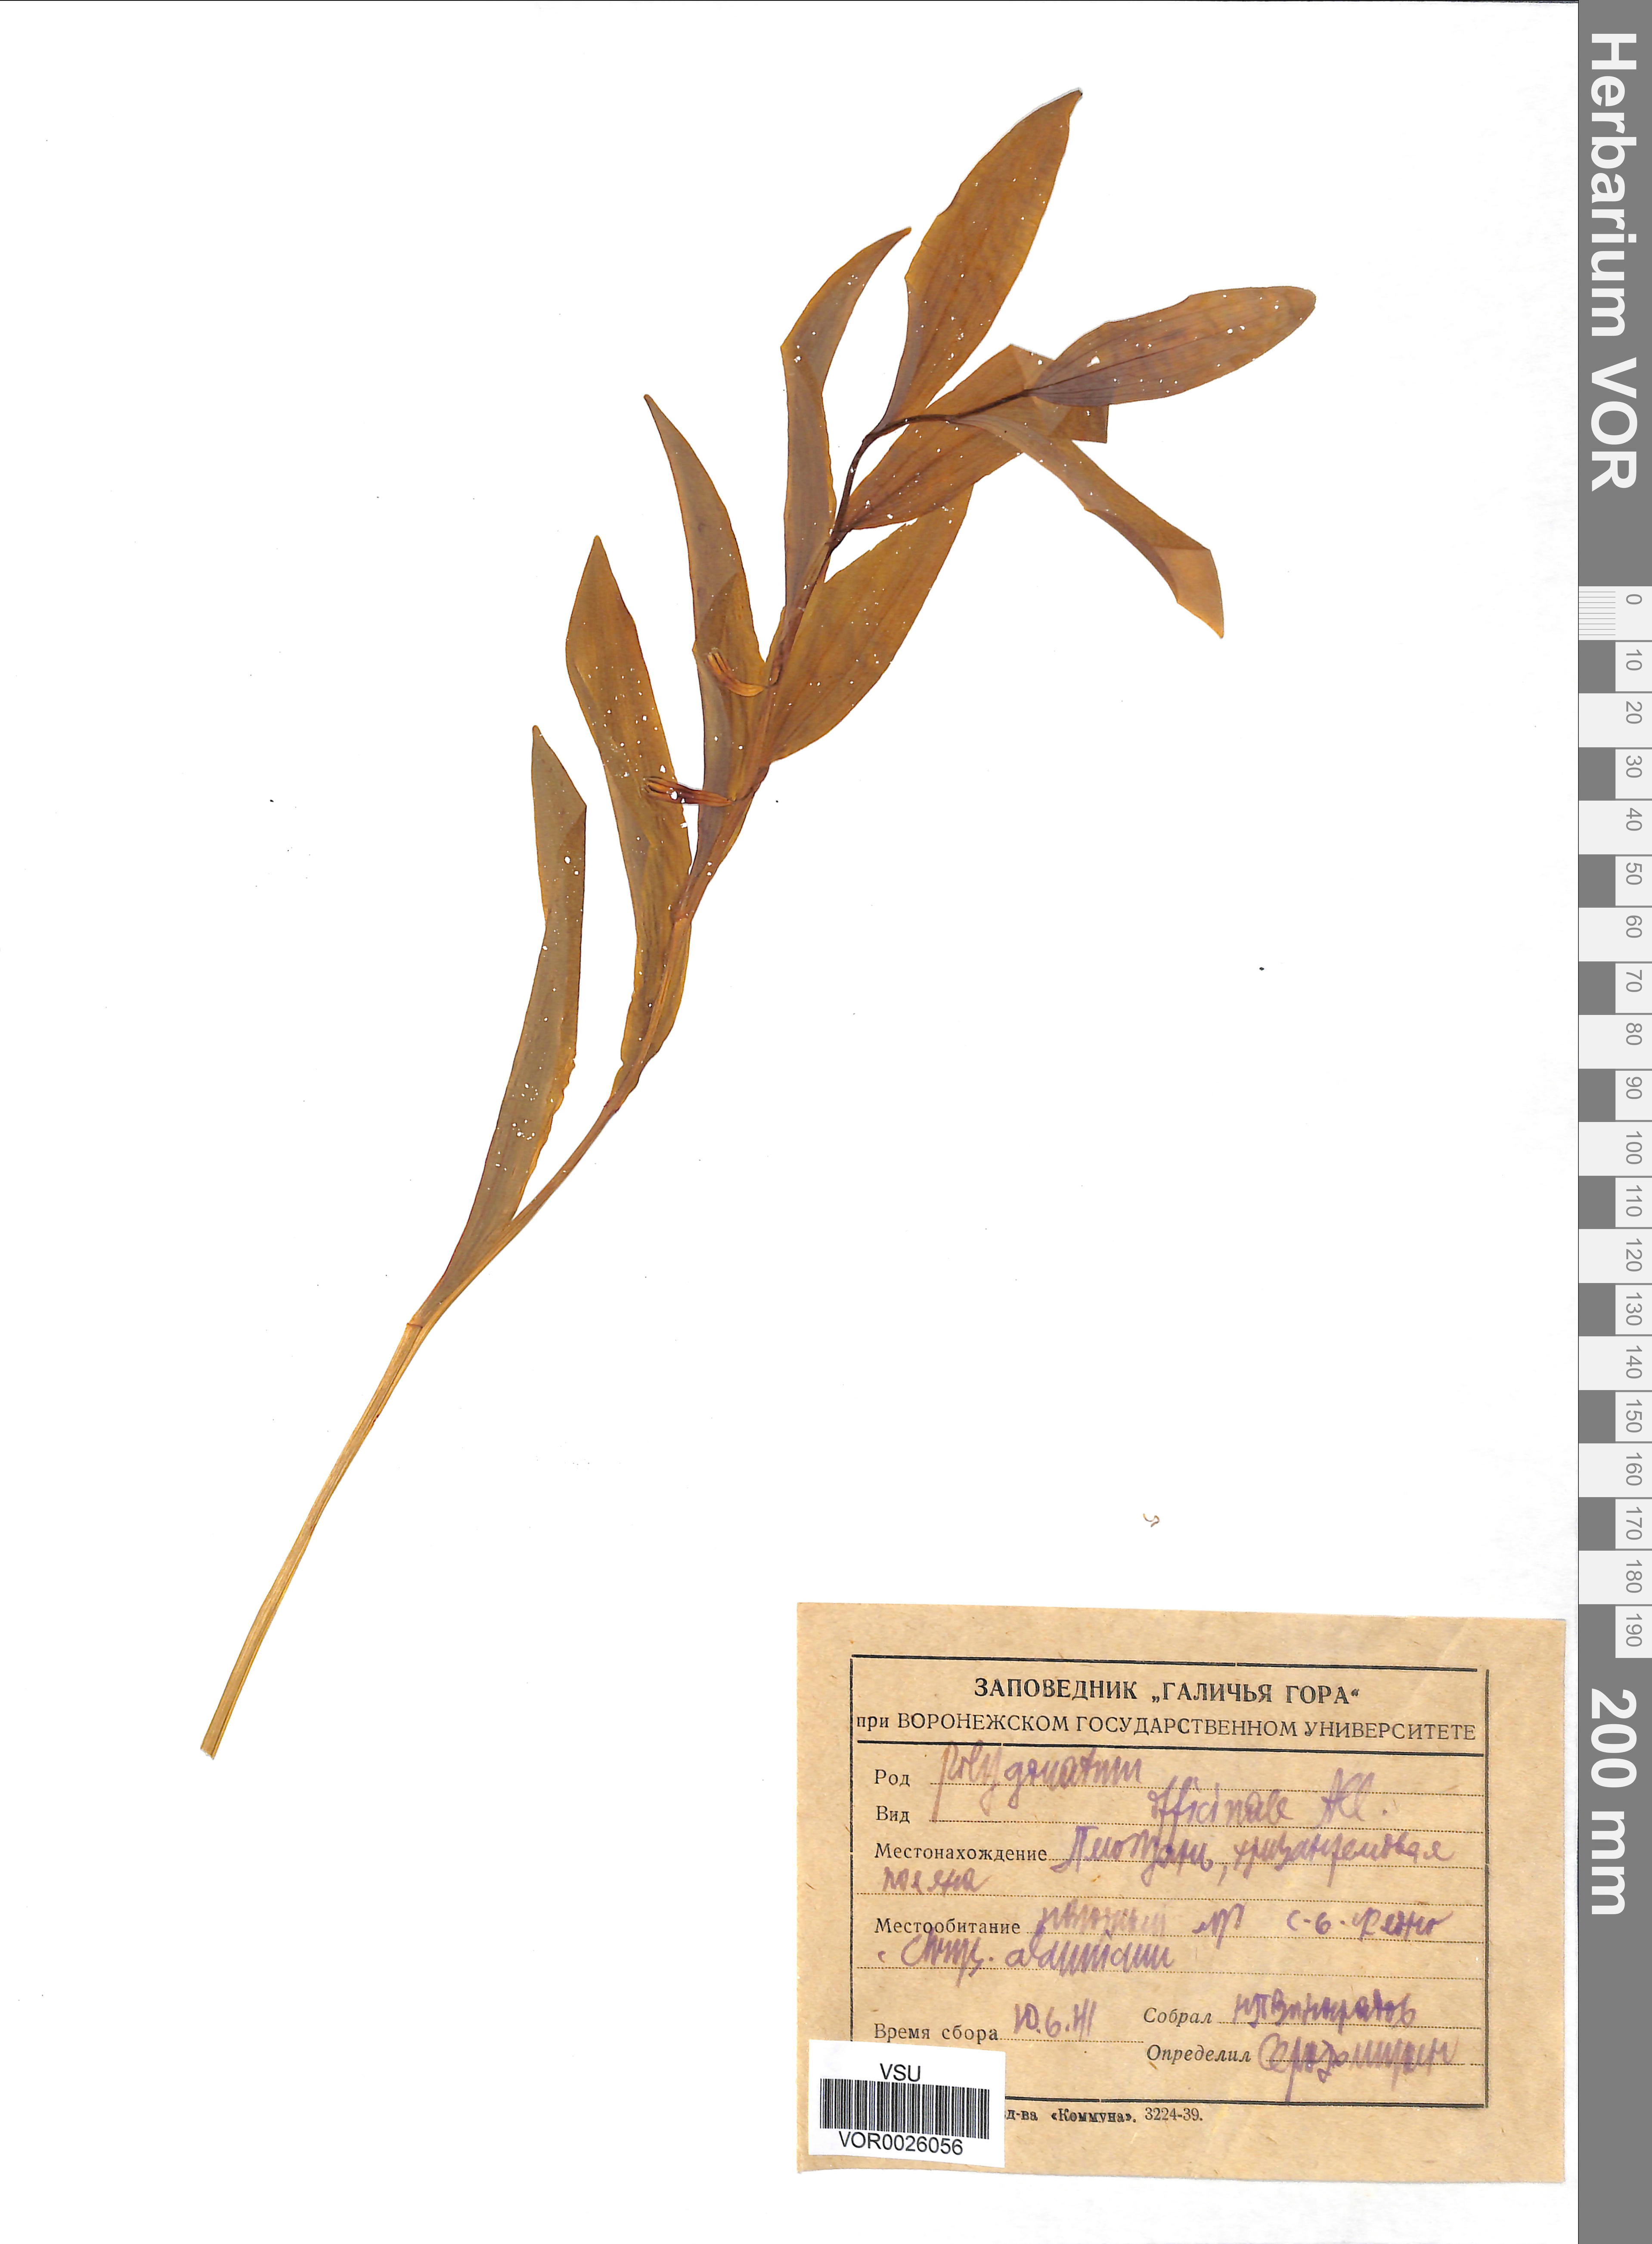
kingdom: Plantae
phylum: Tracheophyta
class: Liliopsida
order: Asparagales
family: Asparagaceae
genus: Polygonatum
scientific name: Polygonatum odoratum
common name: Angular solomon's-seal
